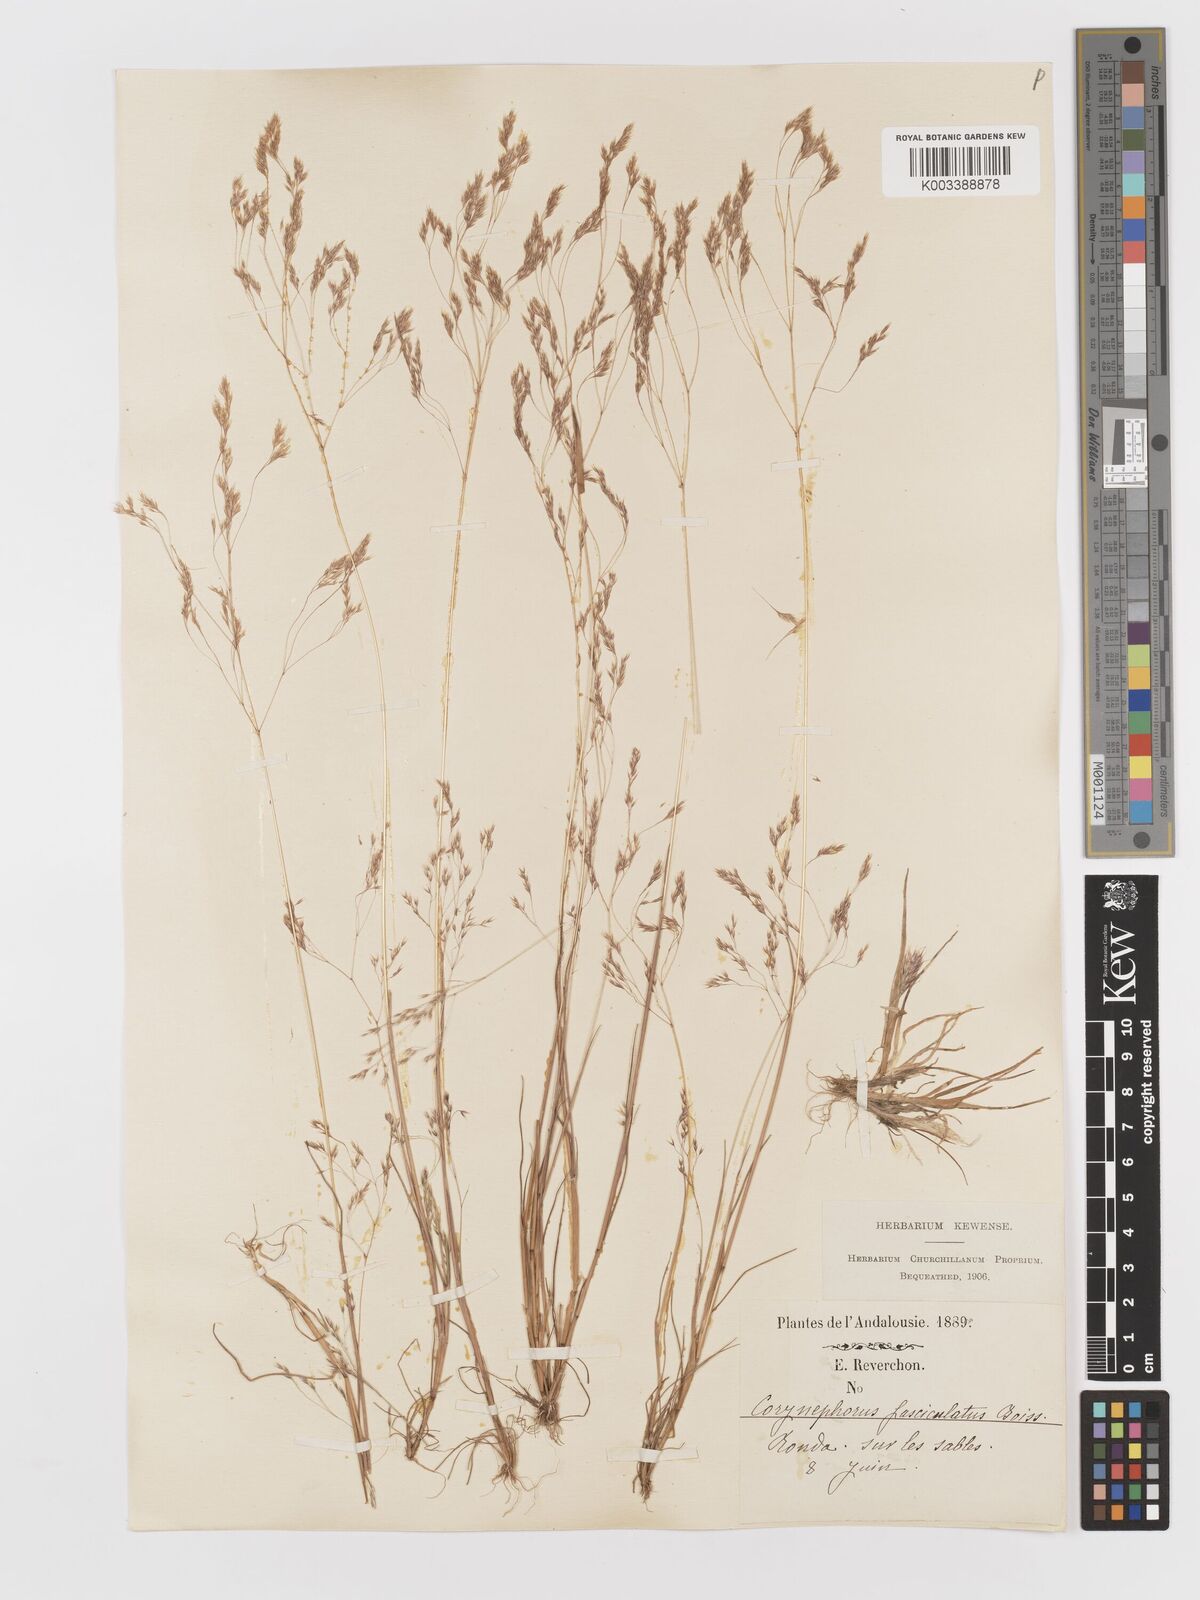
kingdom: Plantae
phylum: Tracheophyta
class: Liliopsida
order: Poales
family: Poaceae
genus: Corynephorus
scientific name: Corynephorus fasciculatus
